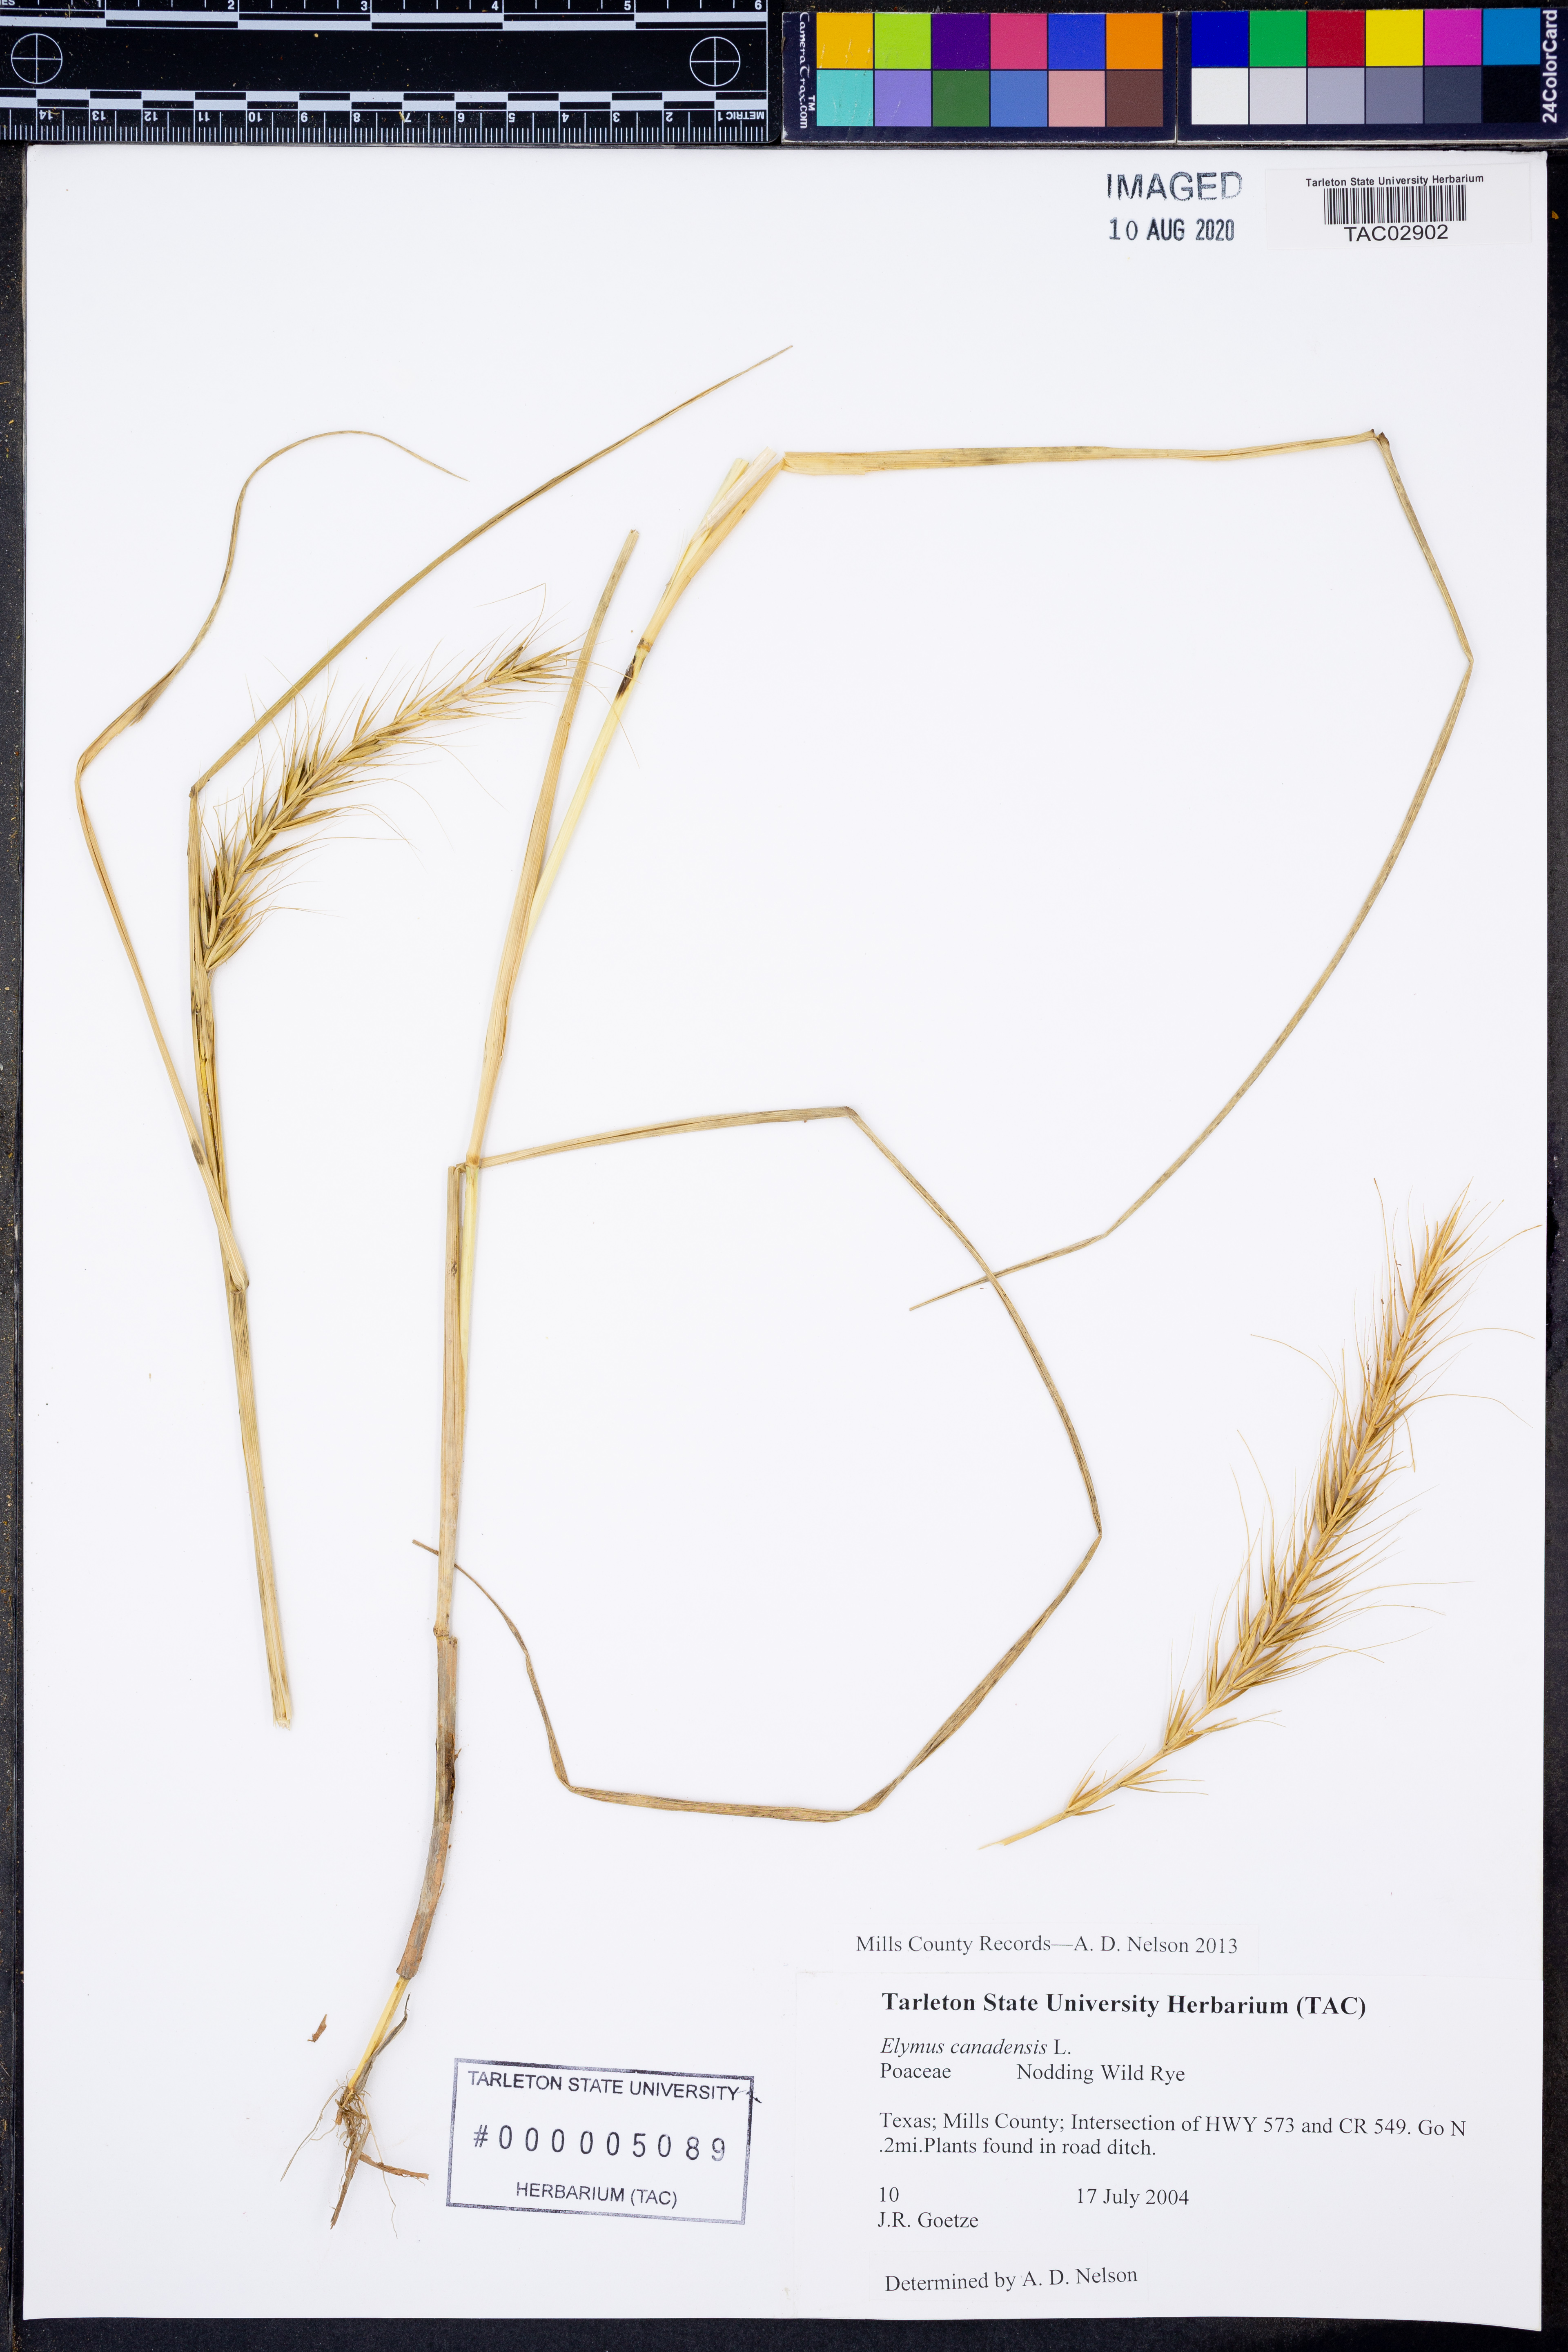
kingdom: Plantae
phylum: Tracheophyta
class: Liliopsida
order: Poales
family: Poaceae
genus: Elymus
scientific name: Elymus canadensis
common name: Canada wild rye
